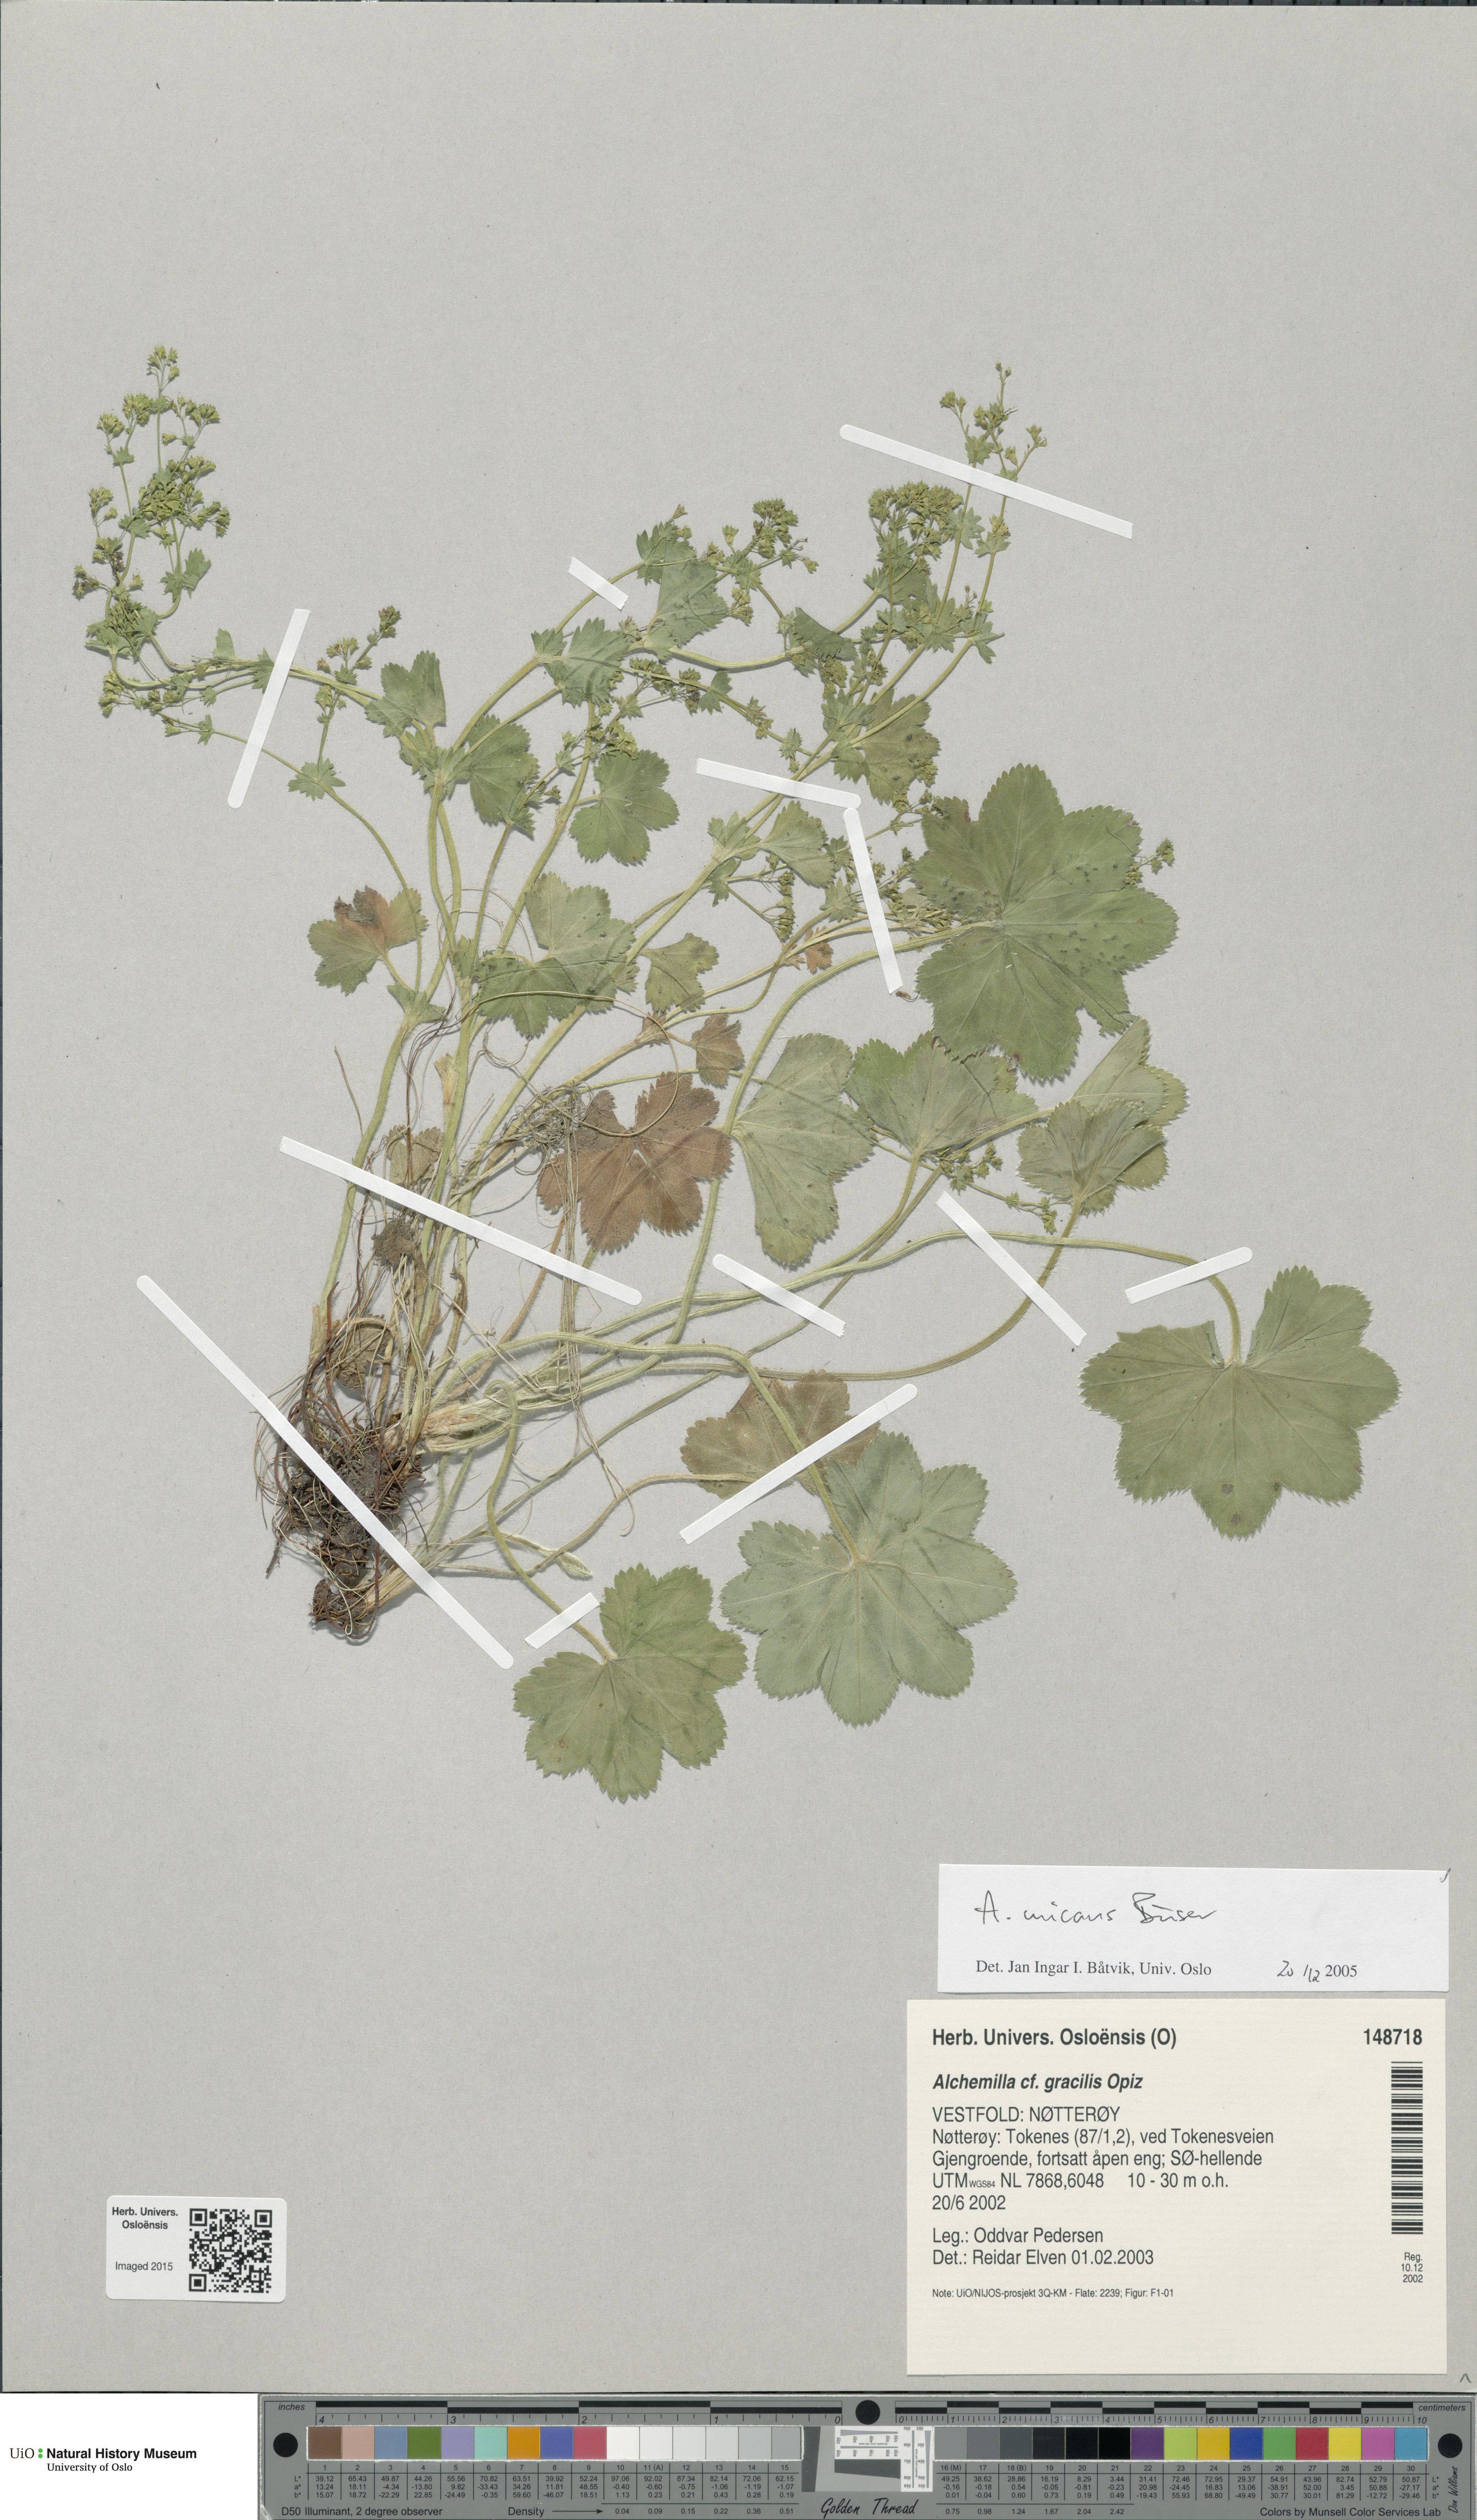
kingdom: Plantae
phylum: Tracheophyta
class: Magnoliopsida
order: Rosales
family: Rosaceae
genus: Alchemilla
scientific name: Alchemilla micans
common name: Gleaming lady's mantle
